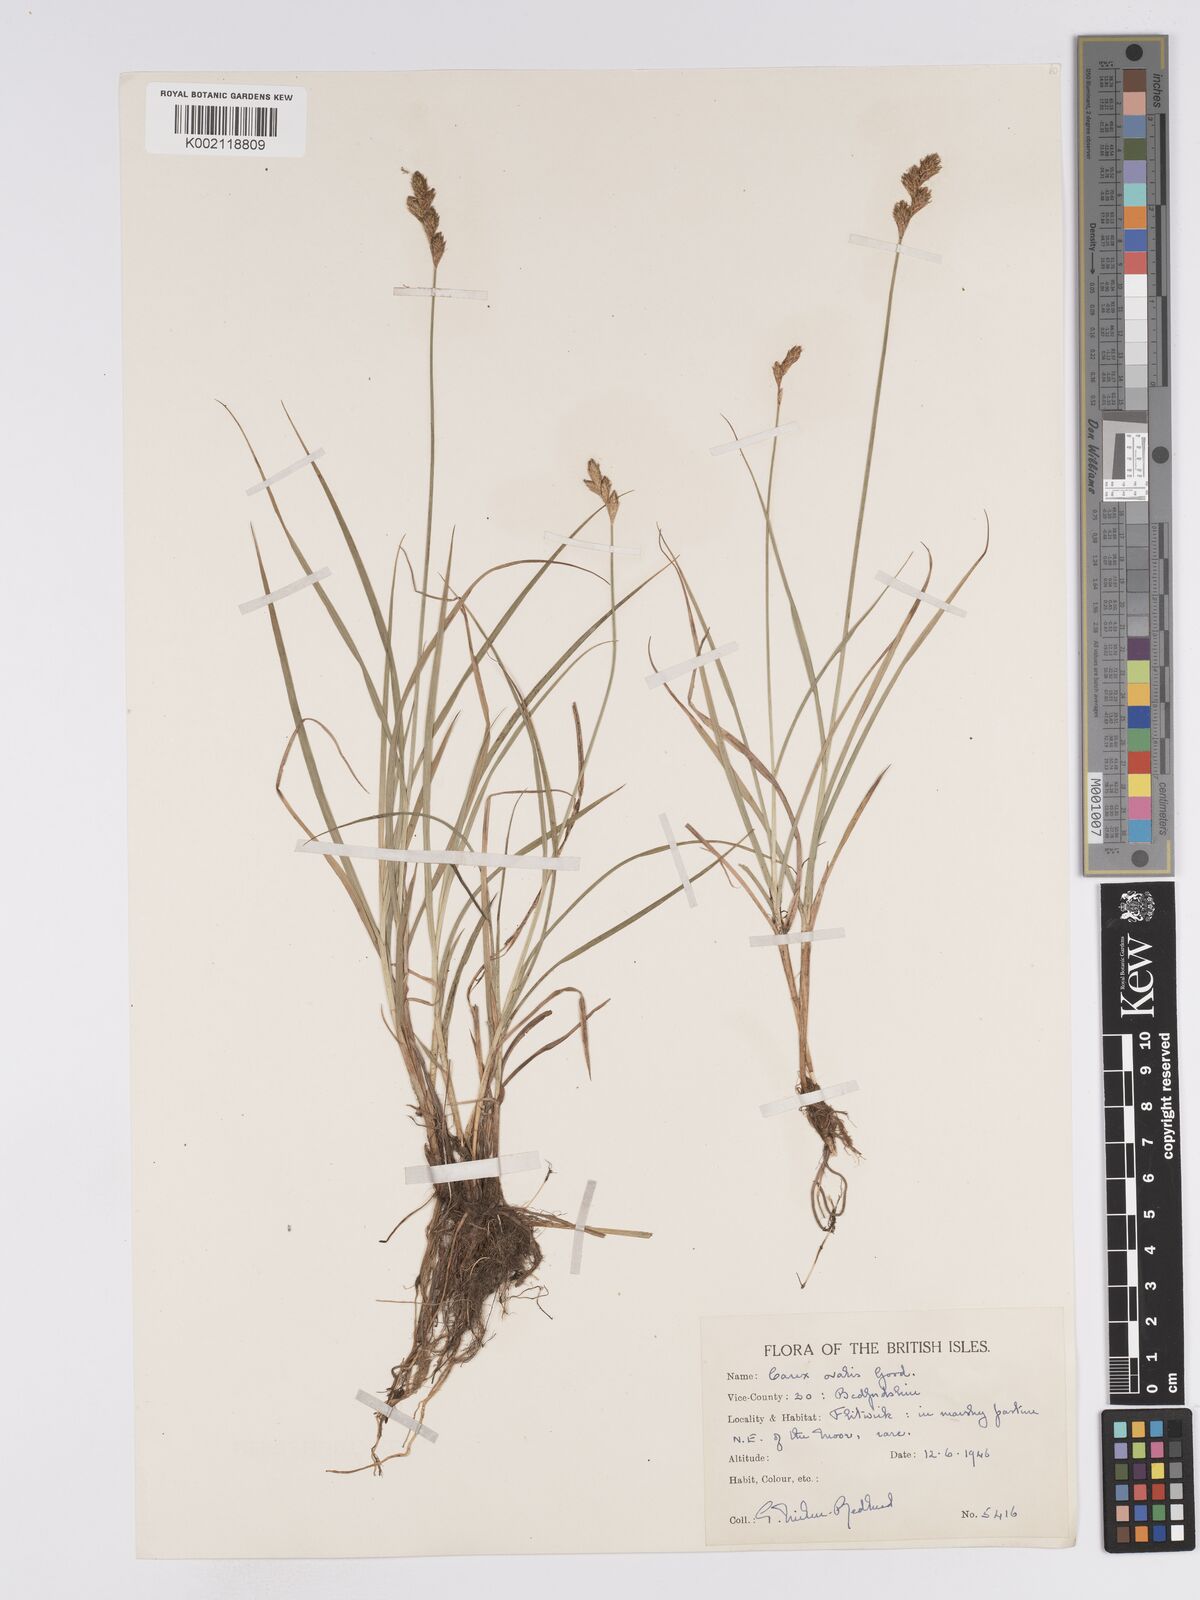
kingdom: Plantae
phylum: Tracheophyta
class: Liliopsida
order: Poales
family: Cyperaceae
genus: Carex
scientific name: Carex leporina
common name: Oval sedge
